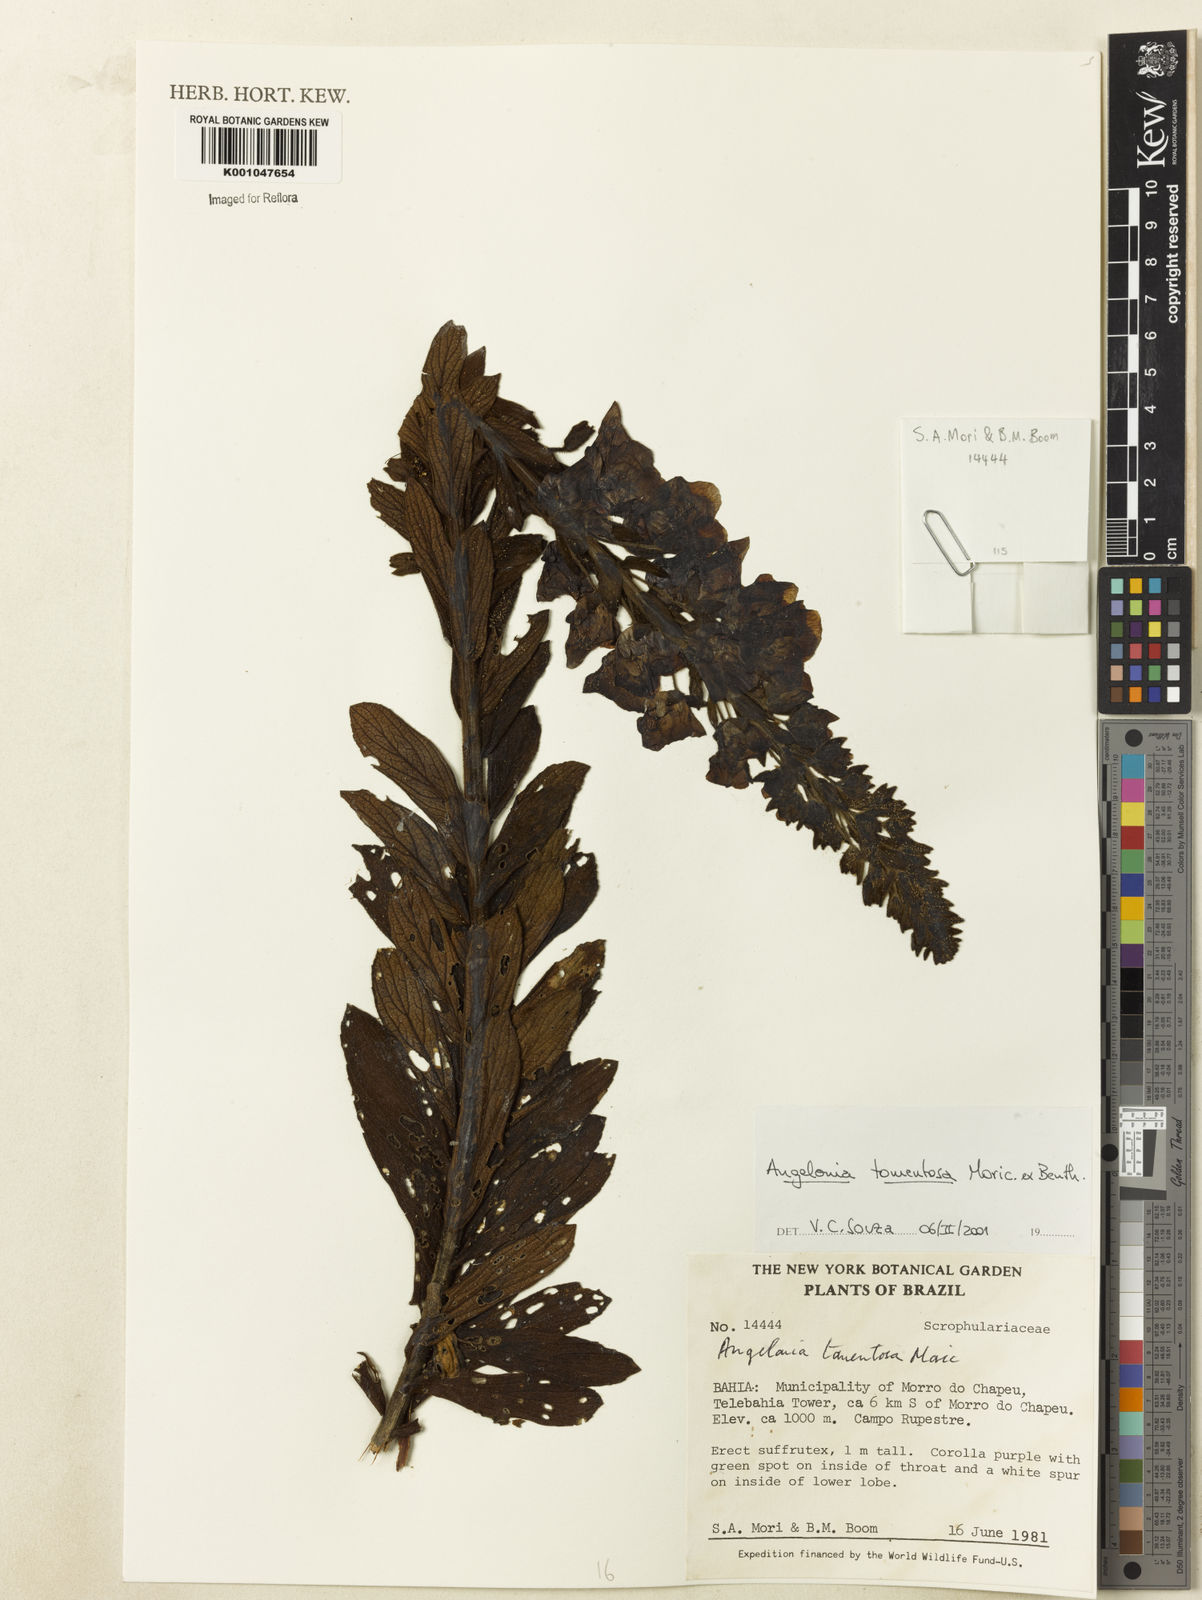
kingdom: Plantae
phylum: Tracheophyta
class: Magnoliopsida
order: Lamiales
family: Plantaginaceae
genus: Angelonia
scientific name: Angelonia tomentosa
